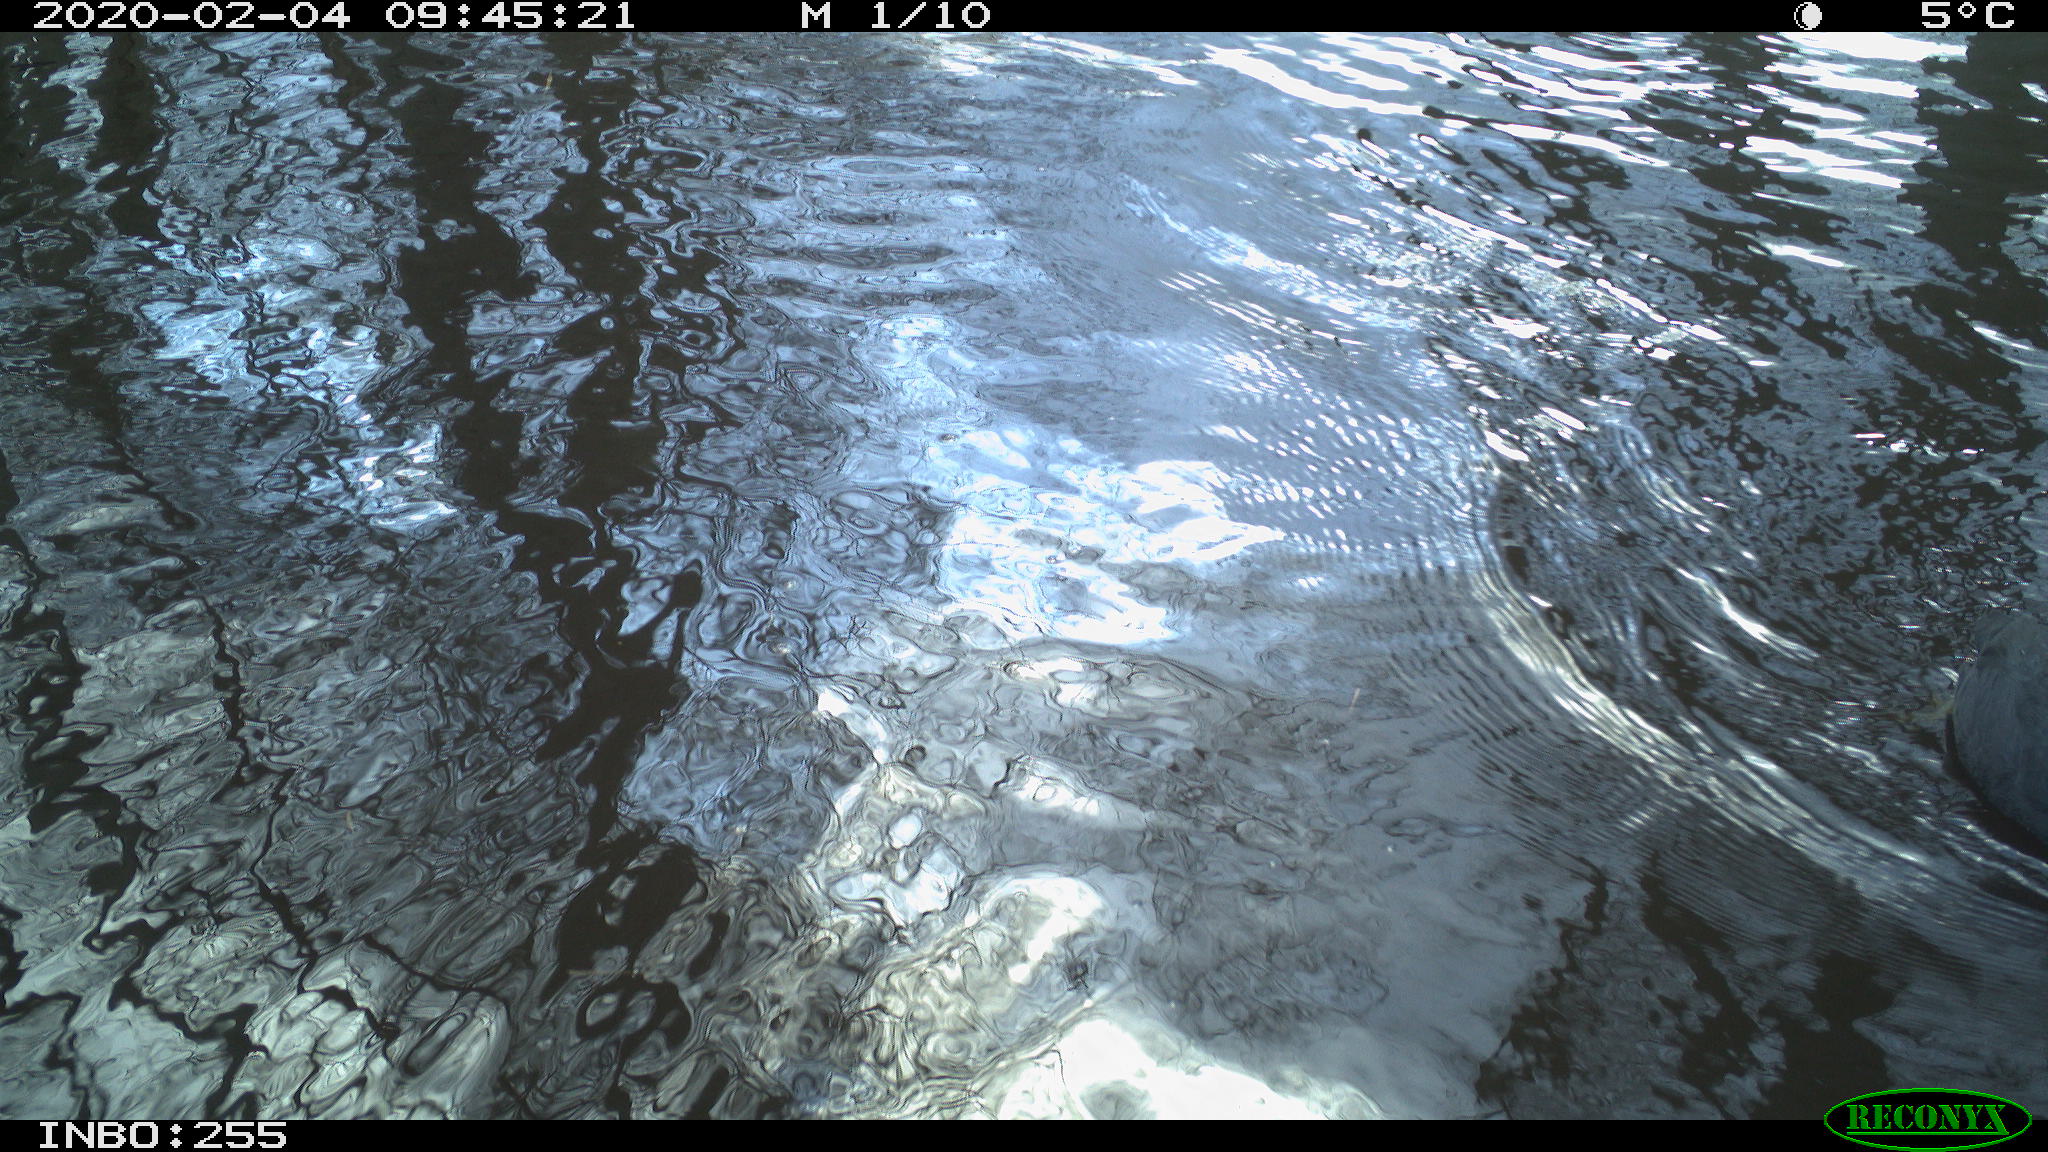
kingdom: Animalia
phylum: Chordata
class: Aves
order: Gruiformes
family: Rallidae
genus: Fulica
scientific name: Fulica atra
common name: Eurasian coot
